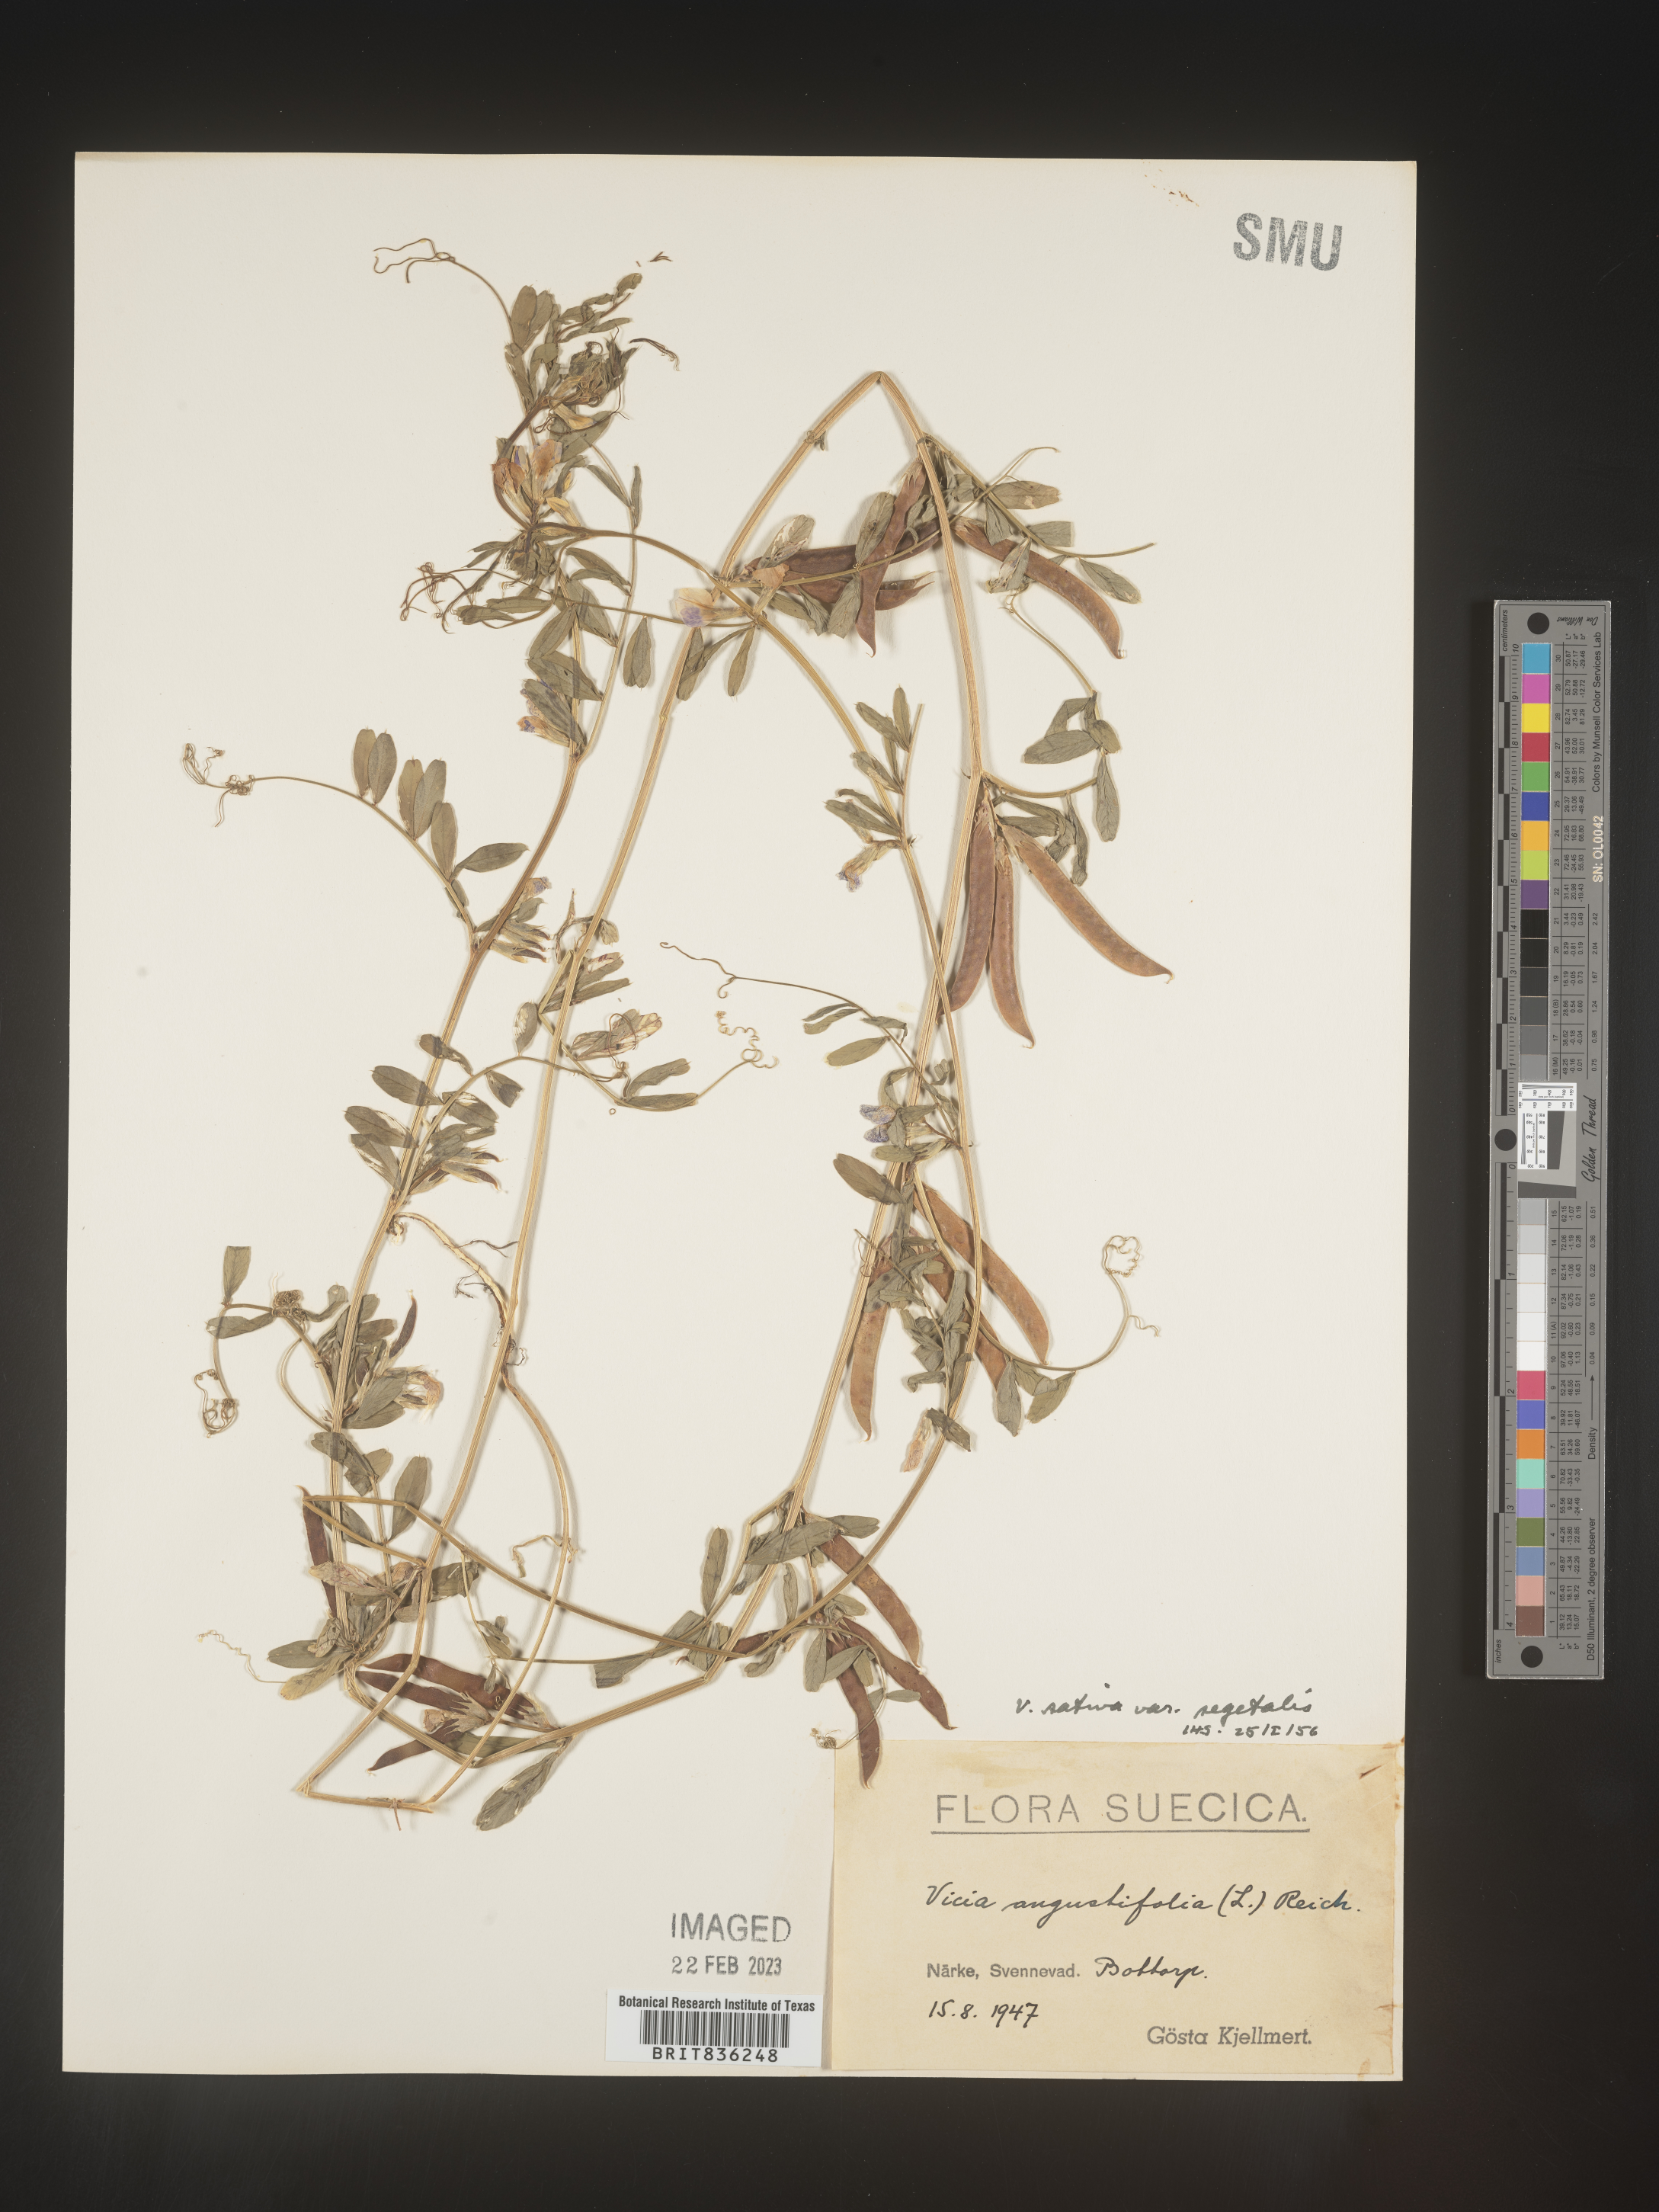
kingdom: Plantae
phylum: Tracheophyta
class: Magnoliopsida
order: Fabales
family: Fabaceae
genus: Vicia
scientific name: Vicia
